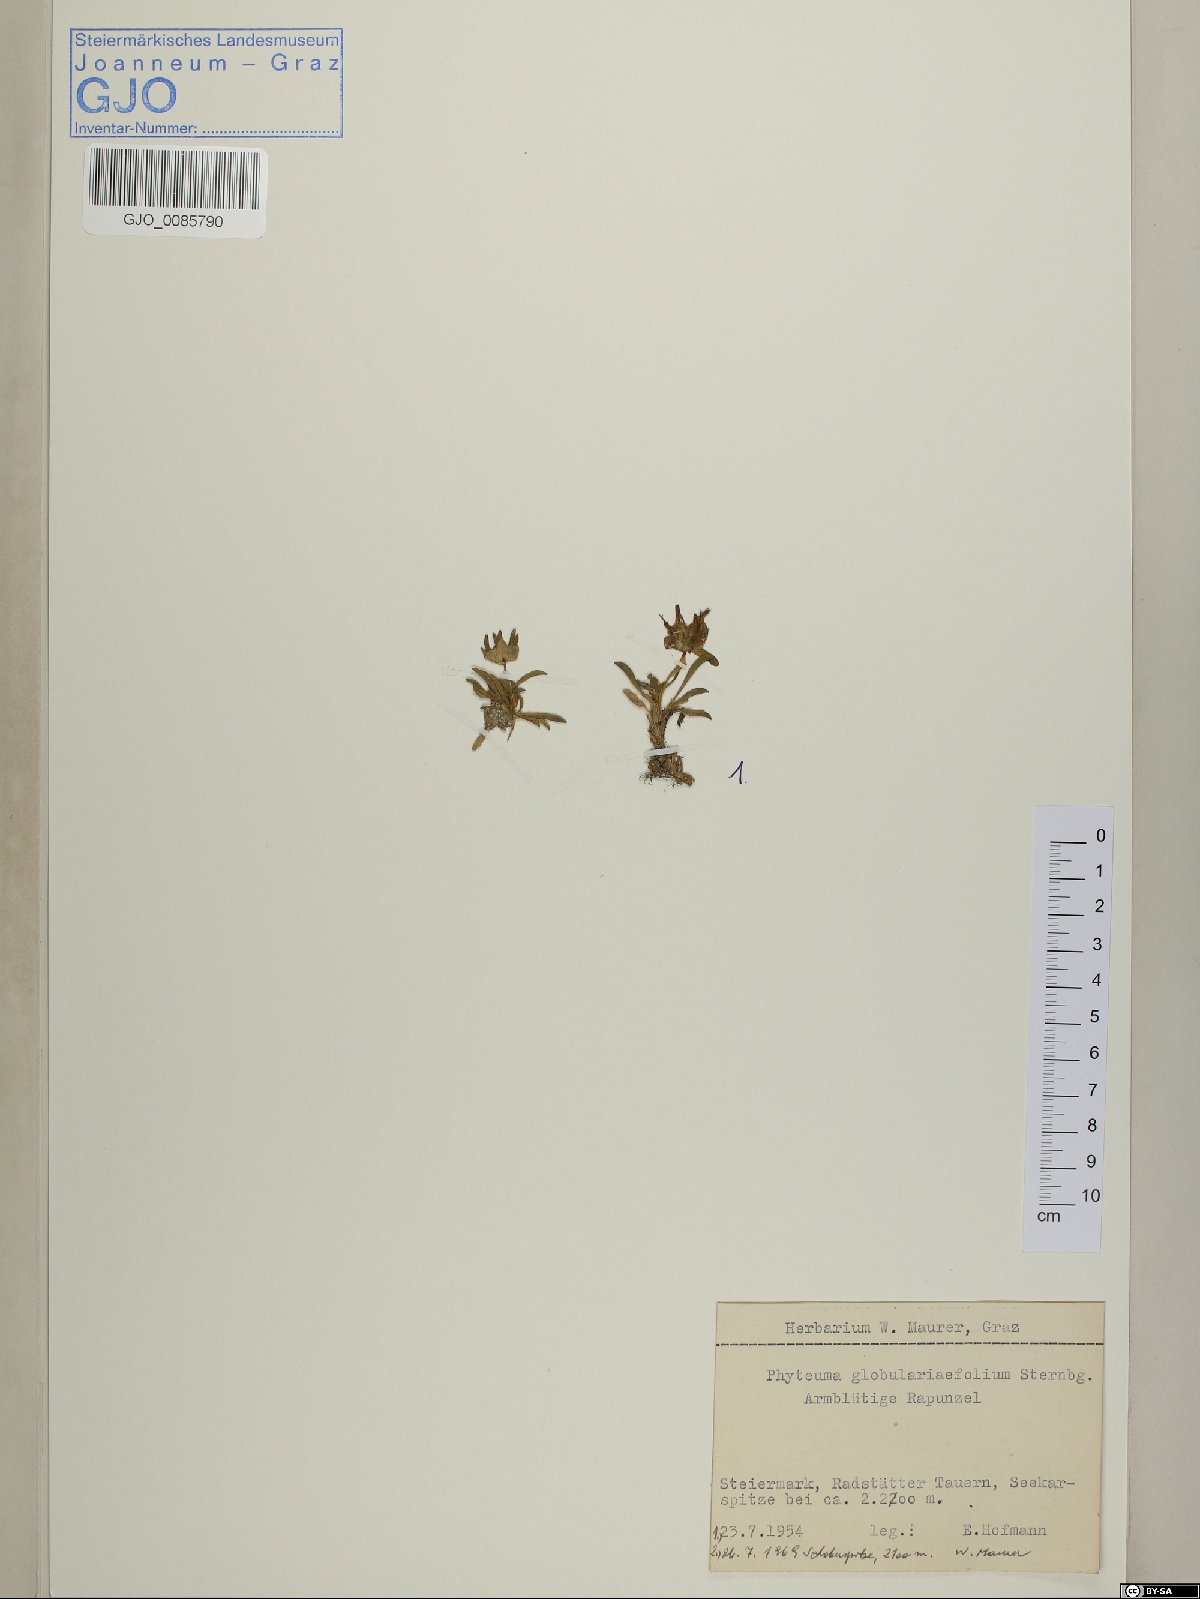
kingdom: Plantae
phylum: Tracheophyta
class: Magnoliopsida
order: Asterales
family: Campanulaceae
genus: Phyteuma
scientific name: Phyteuma globulariifolium
